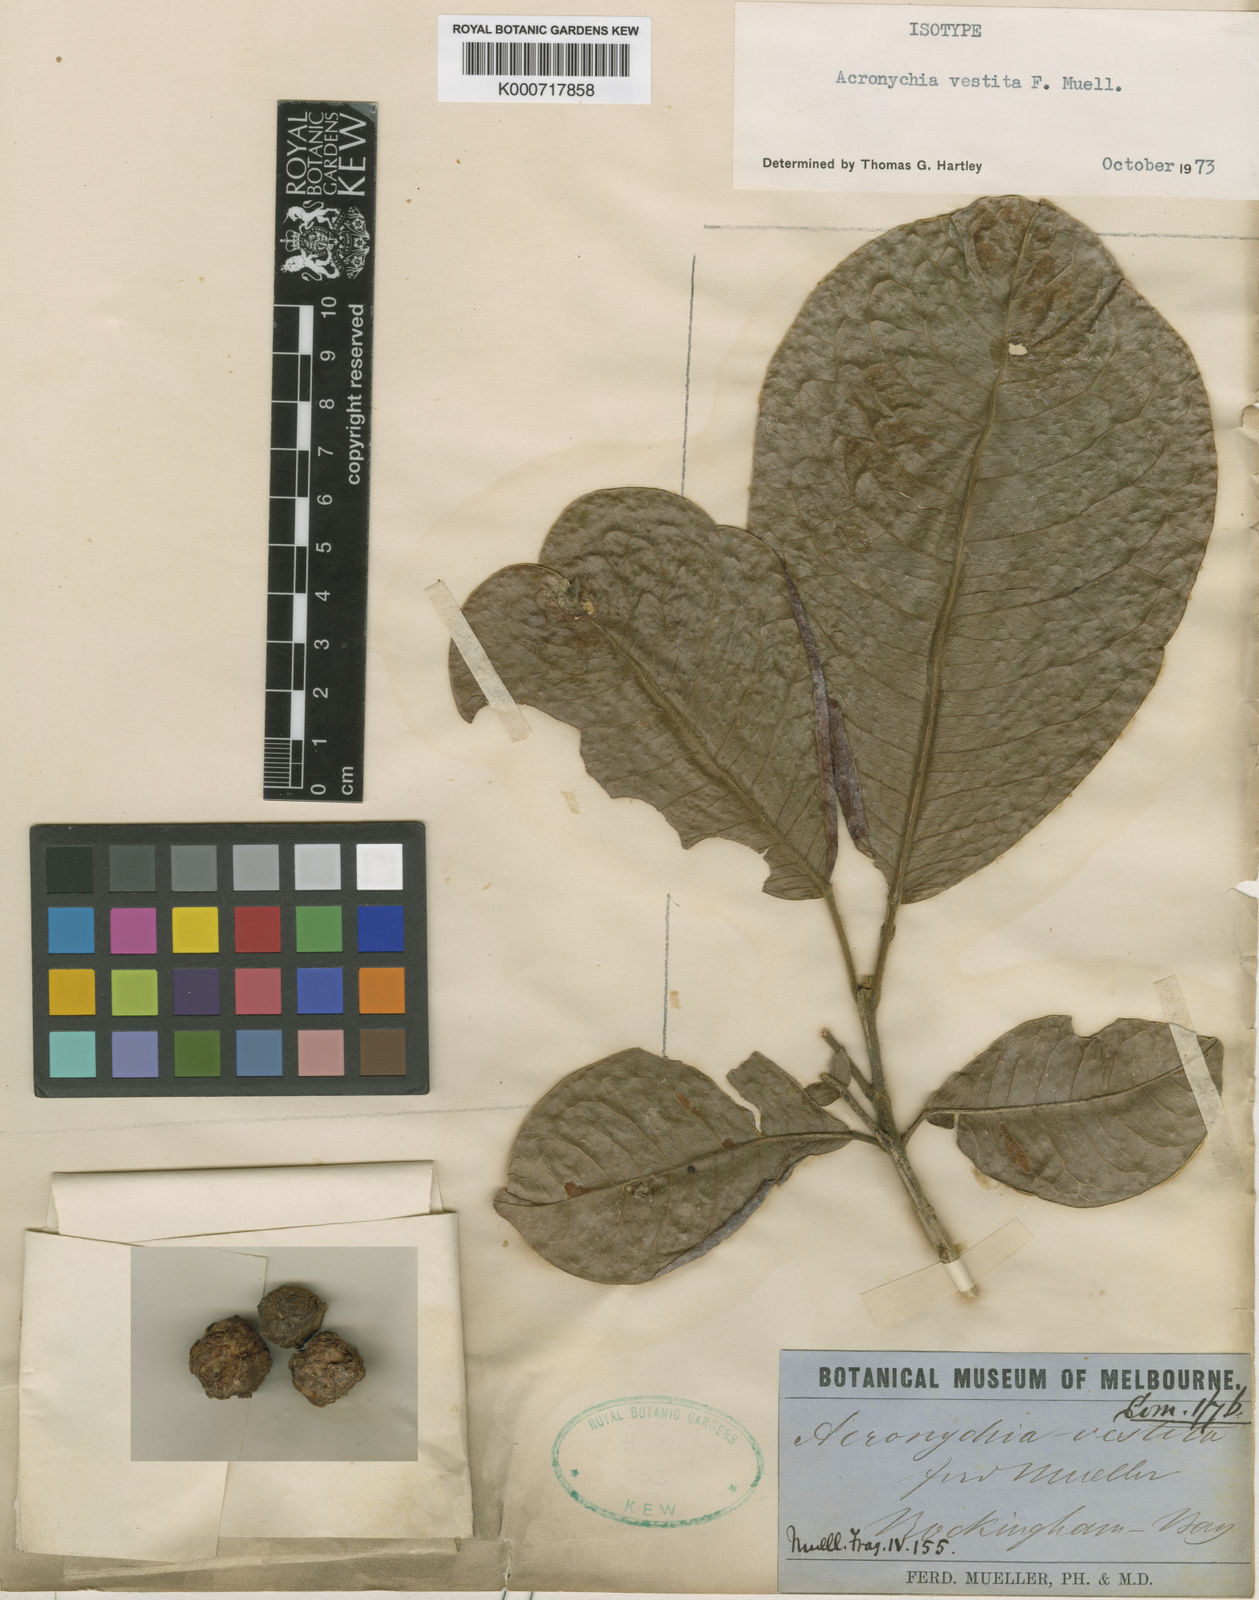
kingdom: Plantae
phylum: Tracheophyta
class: Magnoliopsida
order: Sapindales
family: Rutaceae
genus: Acronychia
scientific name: Acronychia vestita
